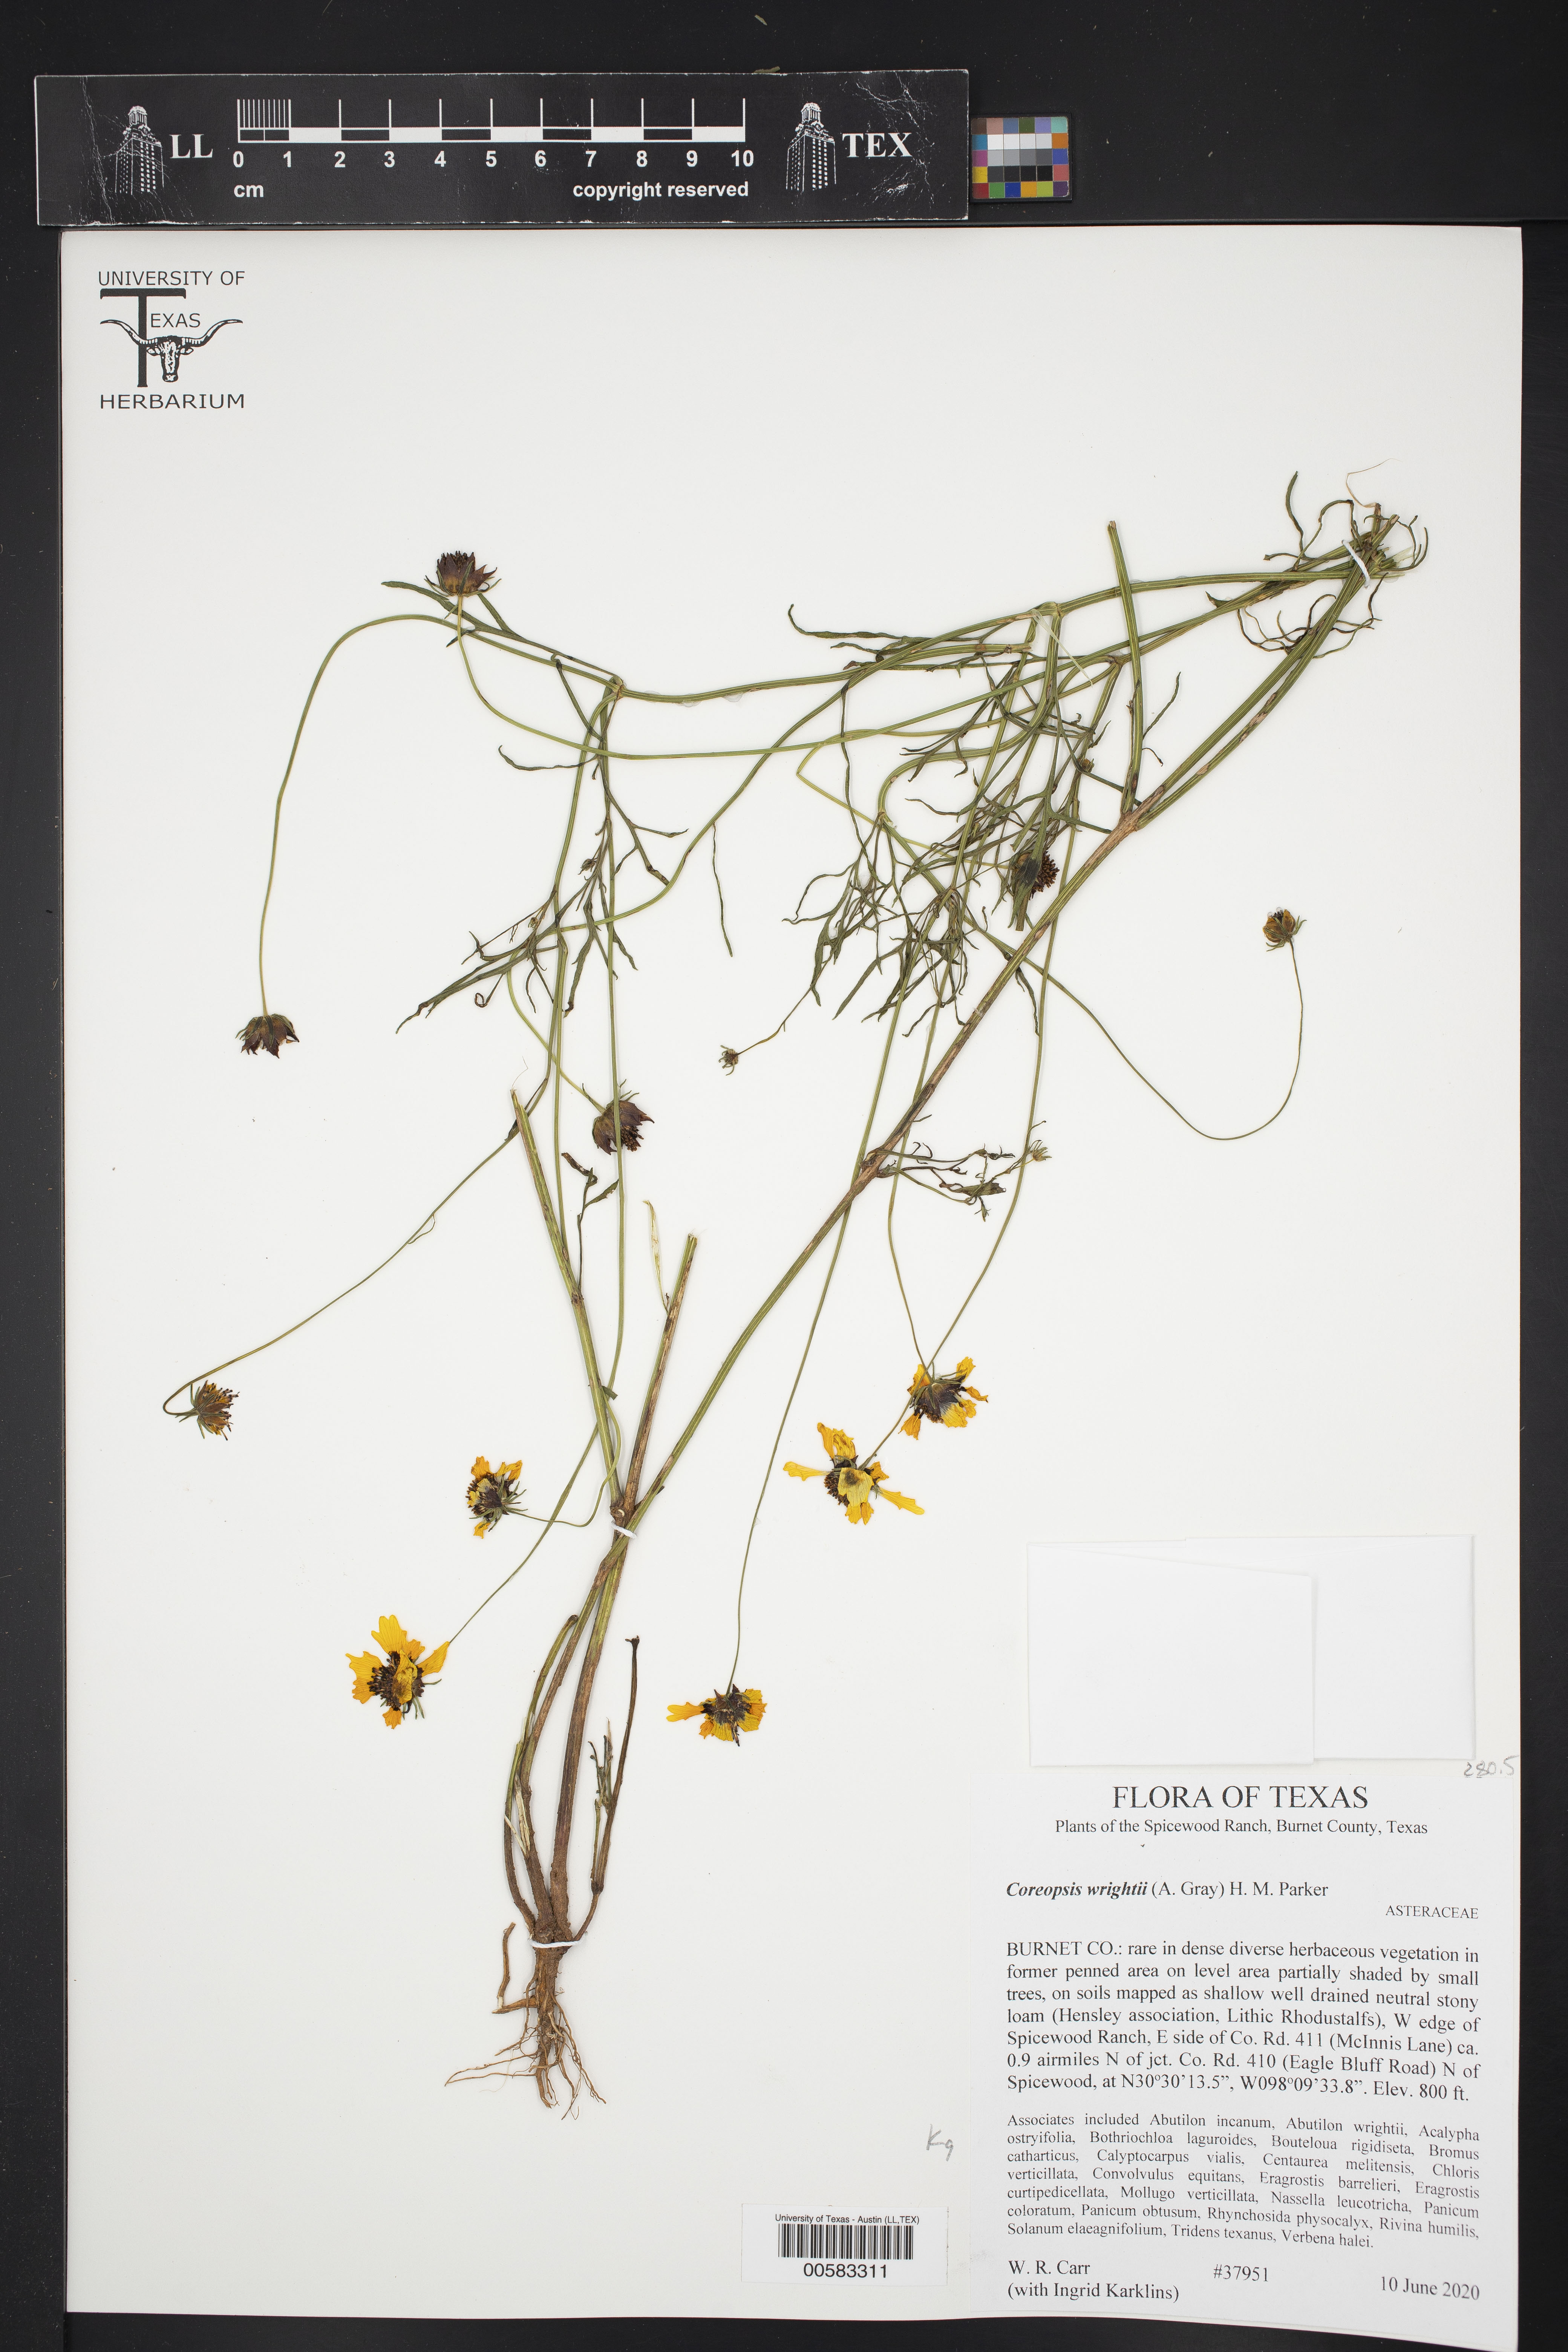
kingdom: Plantae
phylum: Tracheophyta
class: Magnoliopsida
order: Asterales
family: Asteraceae
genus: Coreopsis
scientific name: Coreopsis basalis
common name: Golden-mane coreopsis
